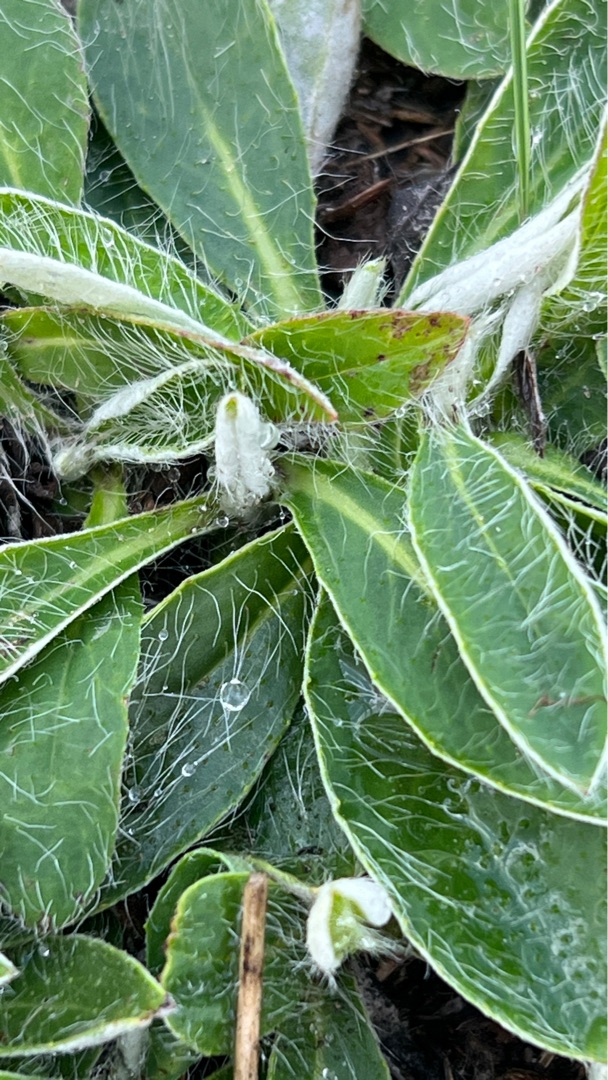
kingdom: Plantae
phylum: Tracheophyta
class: Magnoliopsida
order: Asterales
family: Asteraceae
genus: Pilosella
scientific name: Pilosella officinarum
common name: Håret høgeurt
